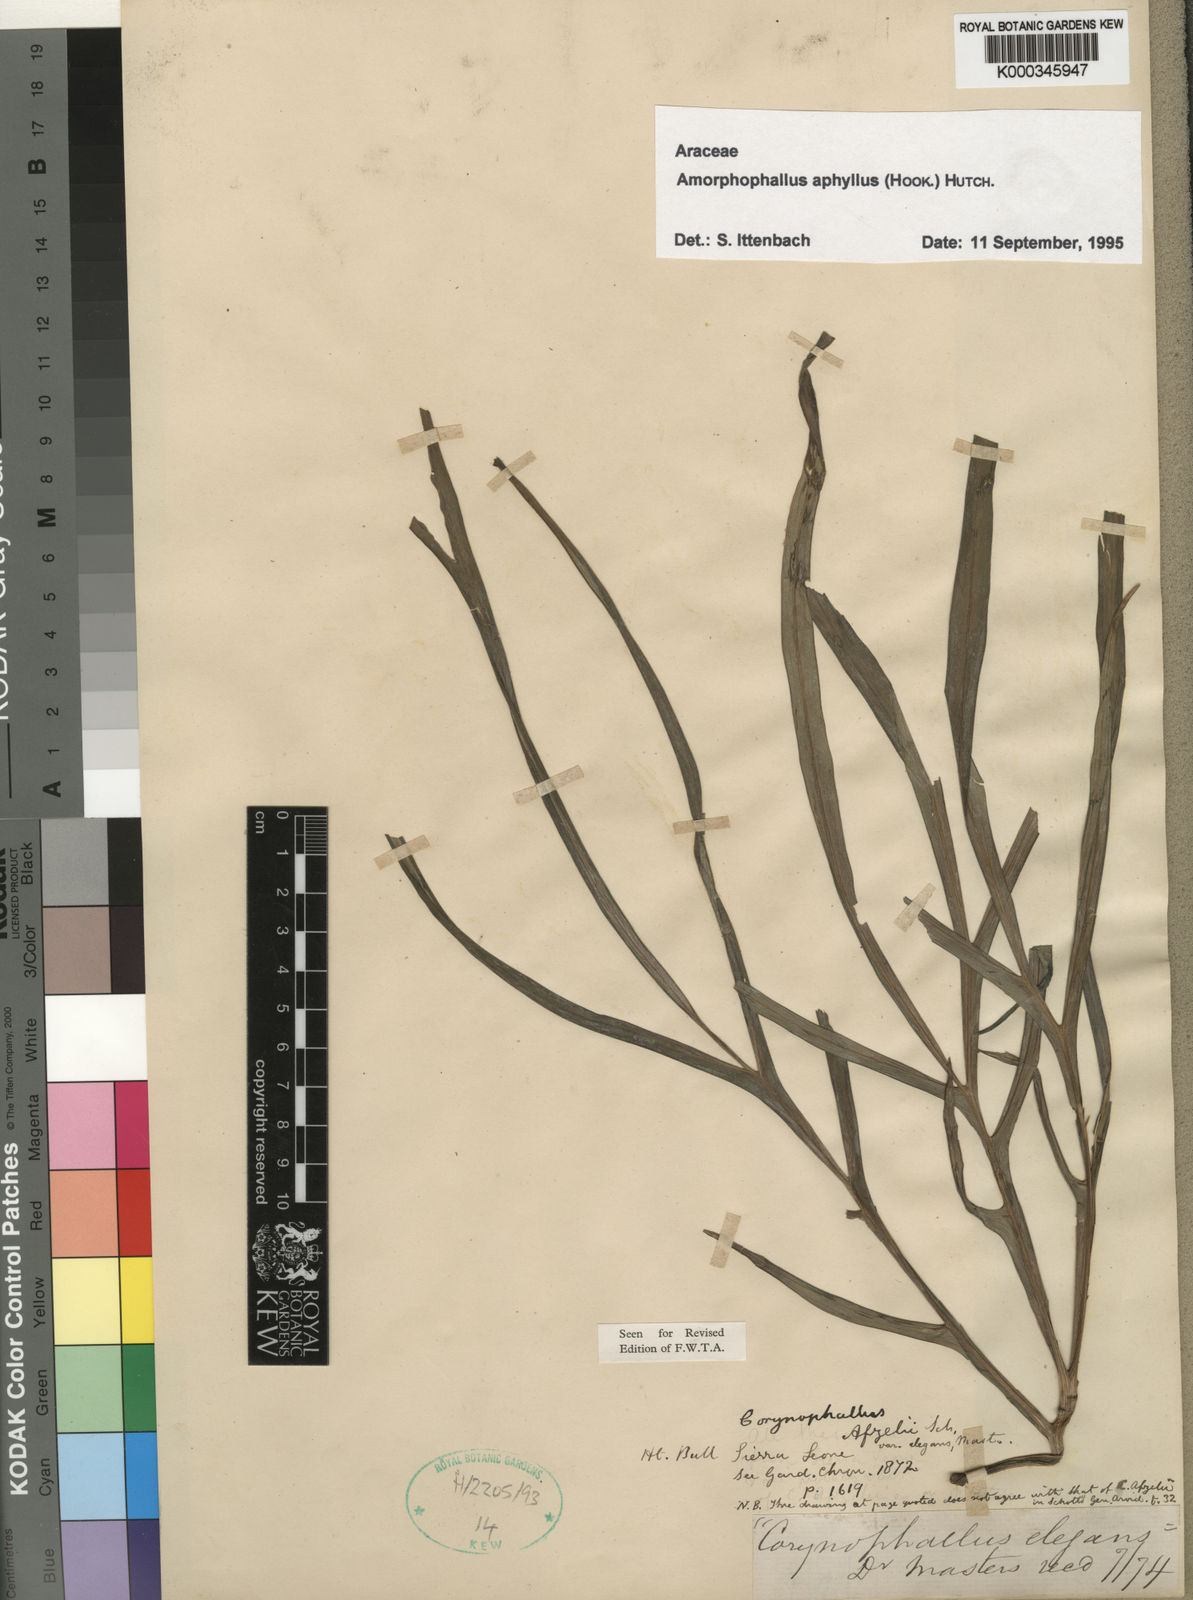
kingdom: Plantae
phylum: Tracheophyta
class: Liliopsida
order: Alismatales
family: Araceae
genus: Amorphophallus
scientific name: Amorphophallus aphyllus
